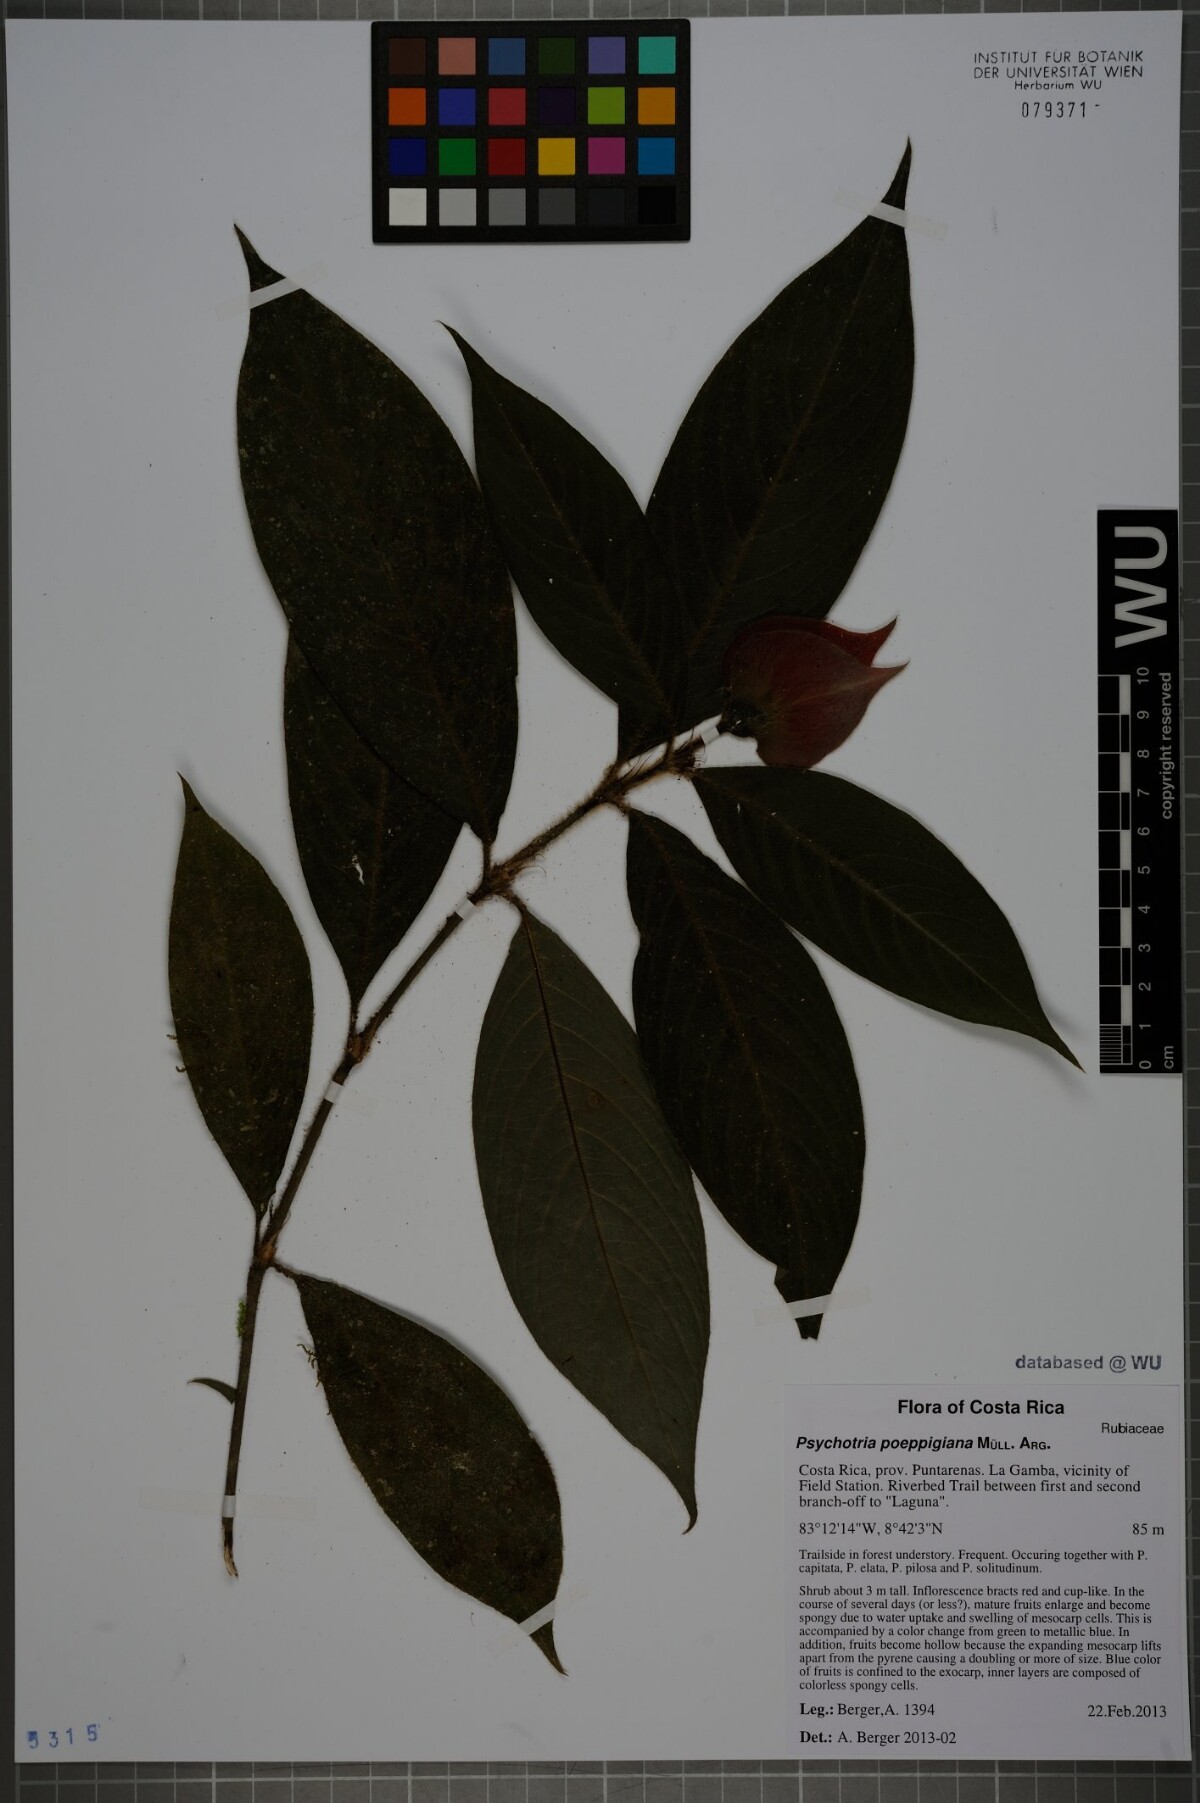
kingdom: Plantae
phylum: Tracheophyta
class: Magnoliopsida
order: Gentianales
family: Rubiaceae
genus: Palicourea
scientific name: Palicourea tomentosa
